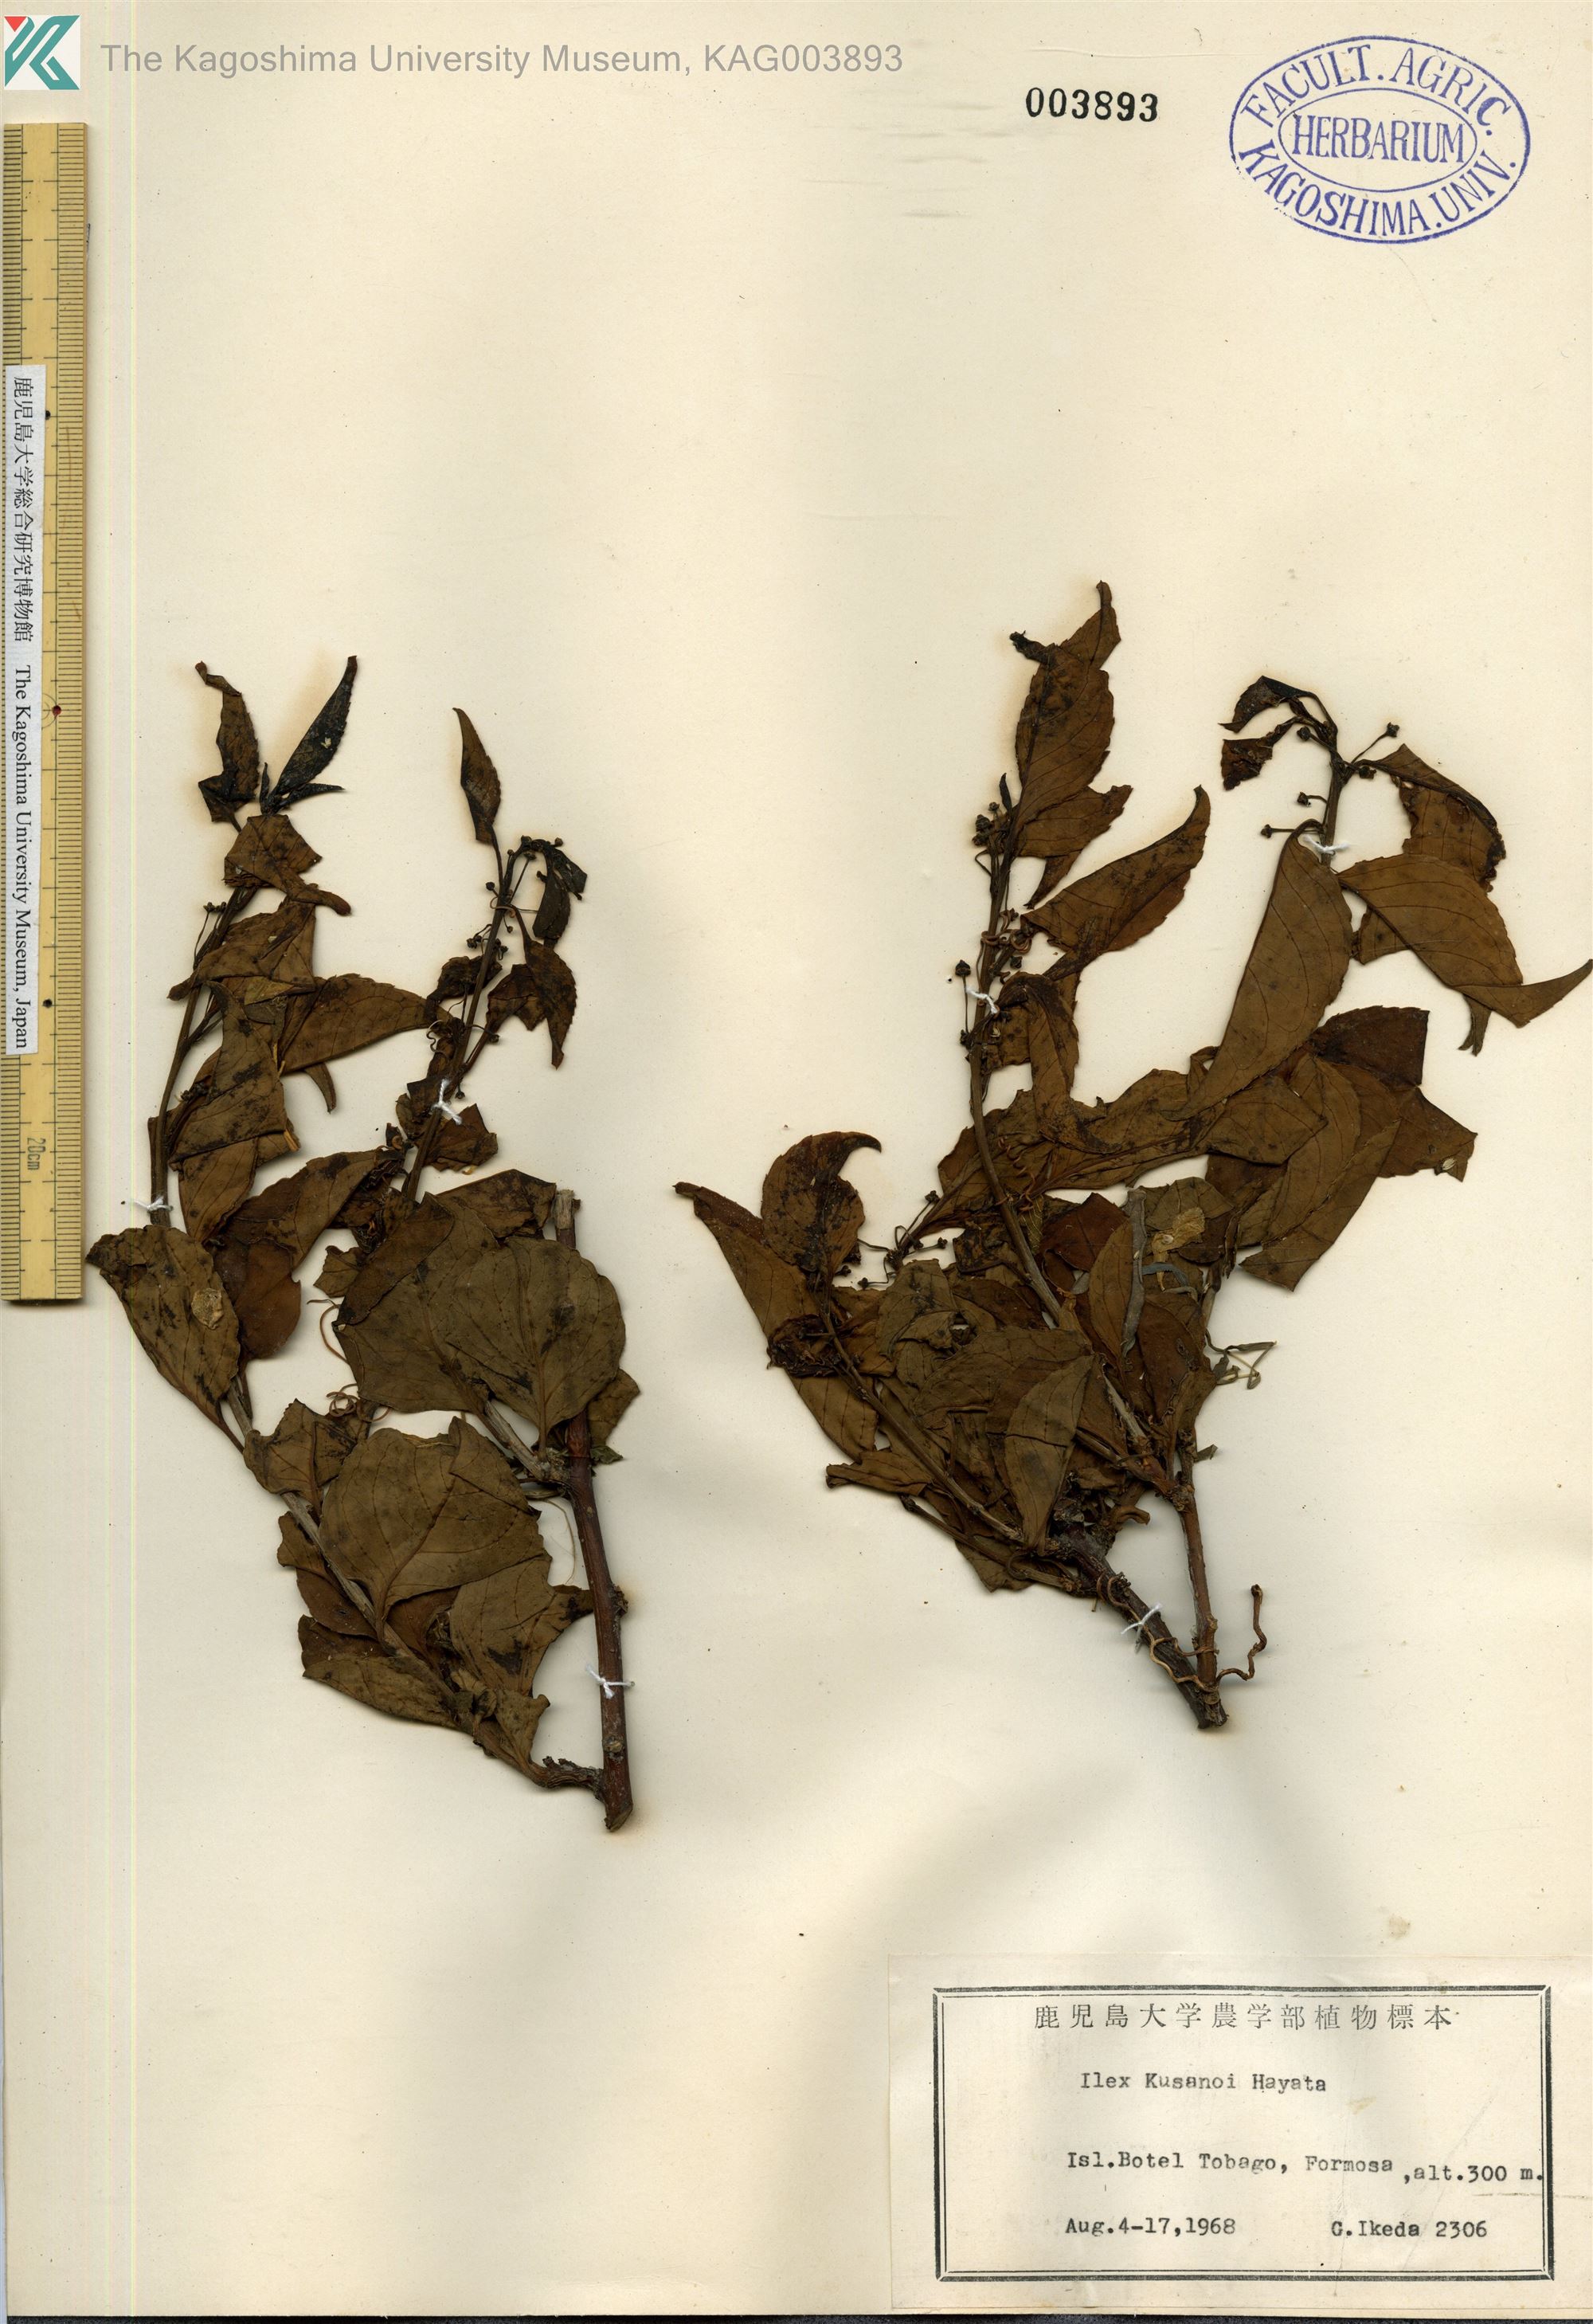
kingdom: Plantae
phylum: Tracheophyta
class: Magnoliopsida
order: Aquifoliales
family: Aquifoliaceae
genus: Ilex
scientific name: Ilex kusanoi
